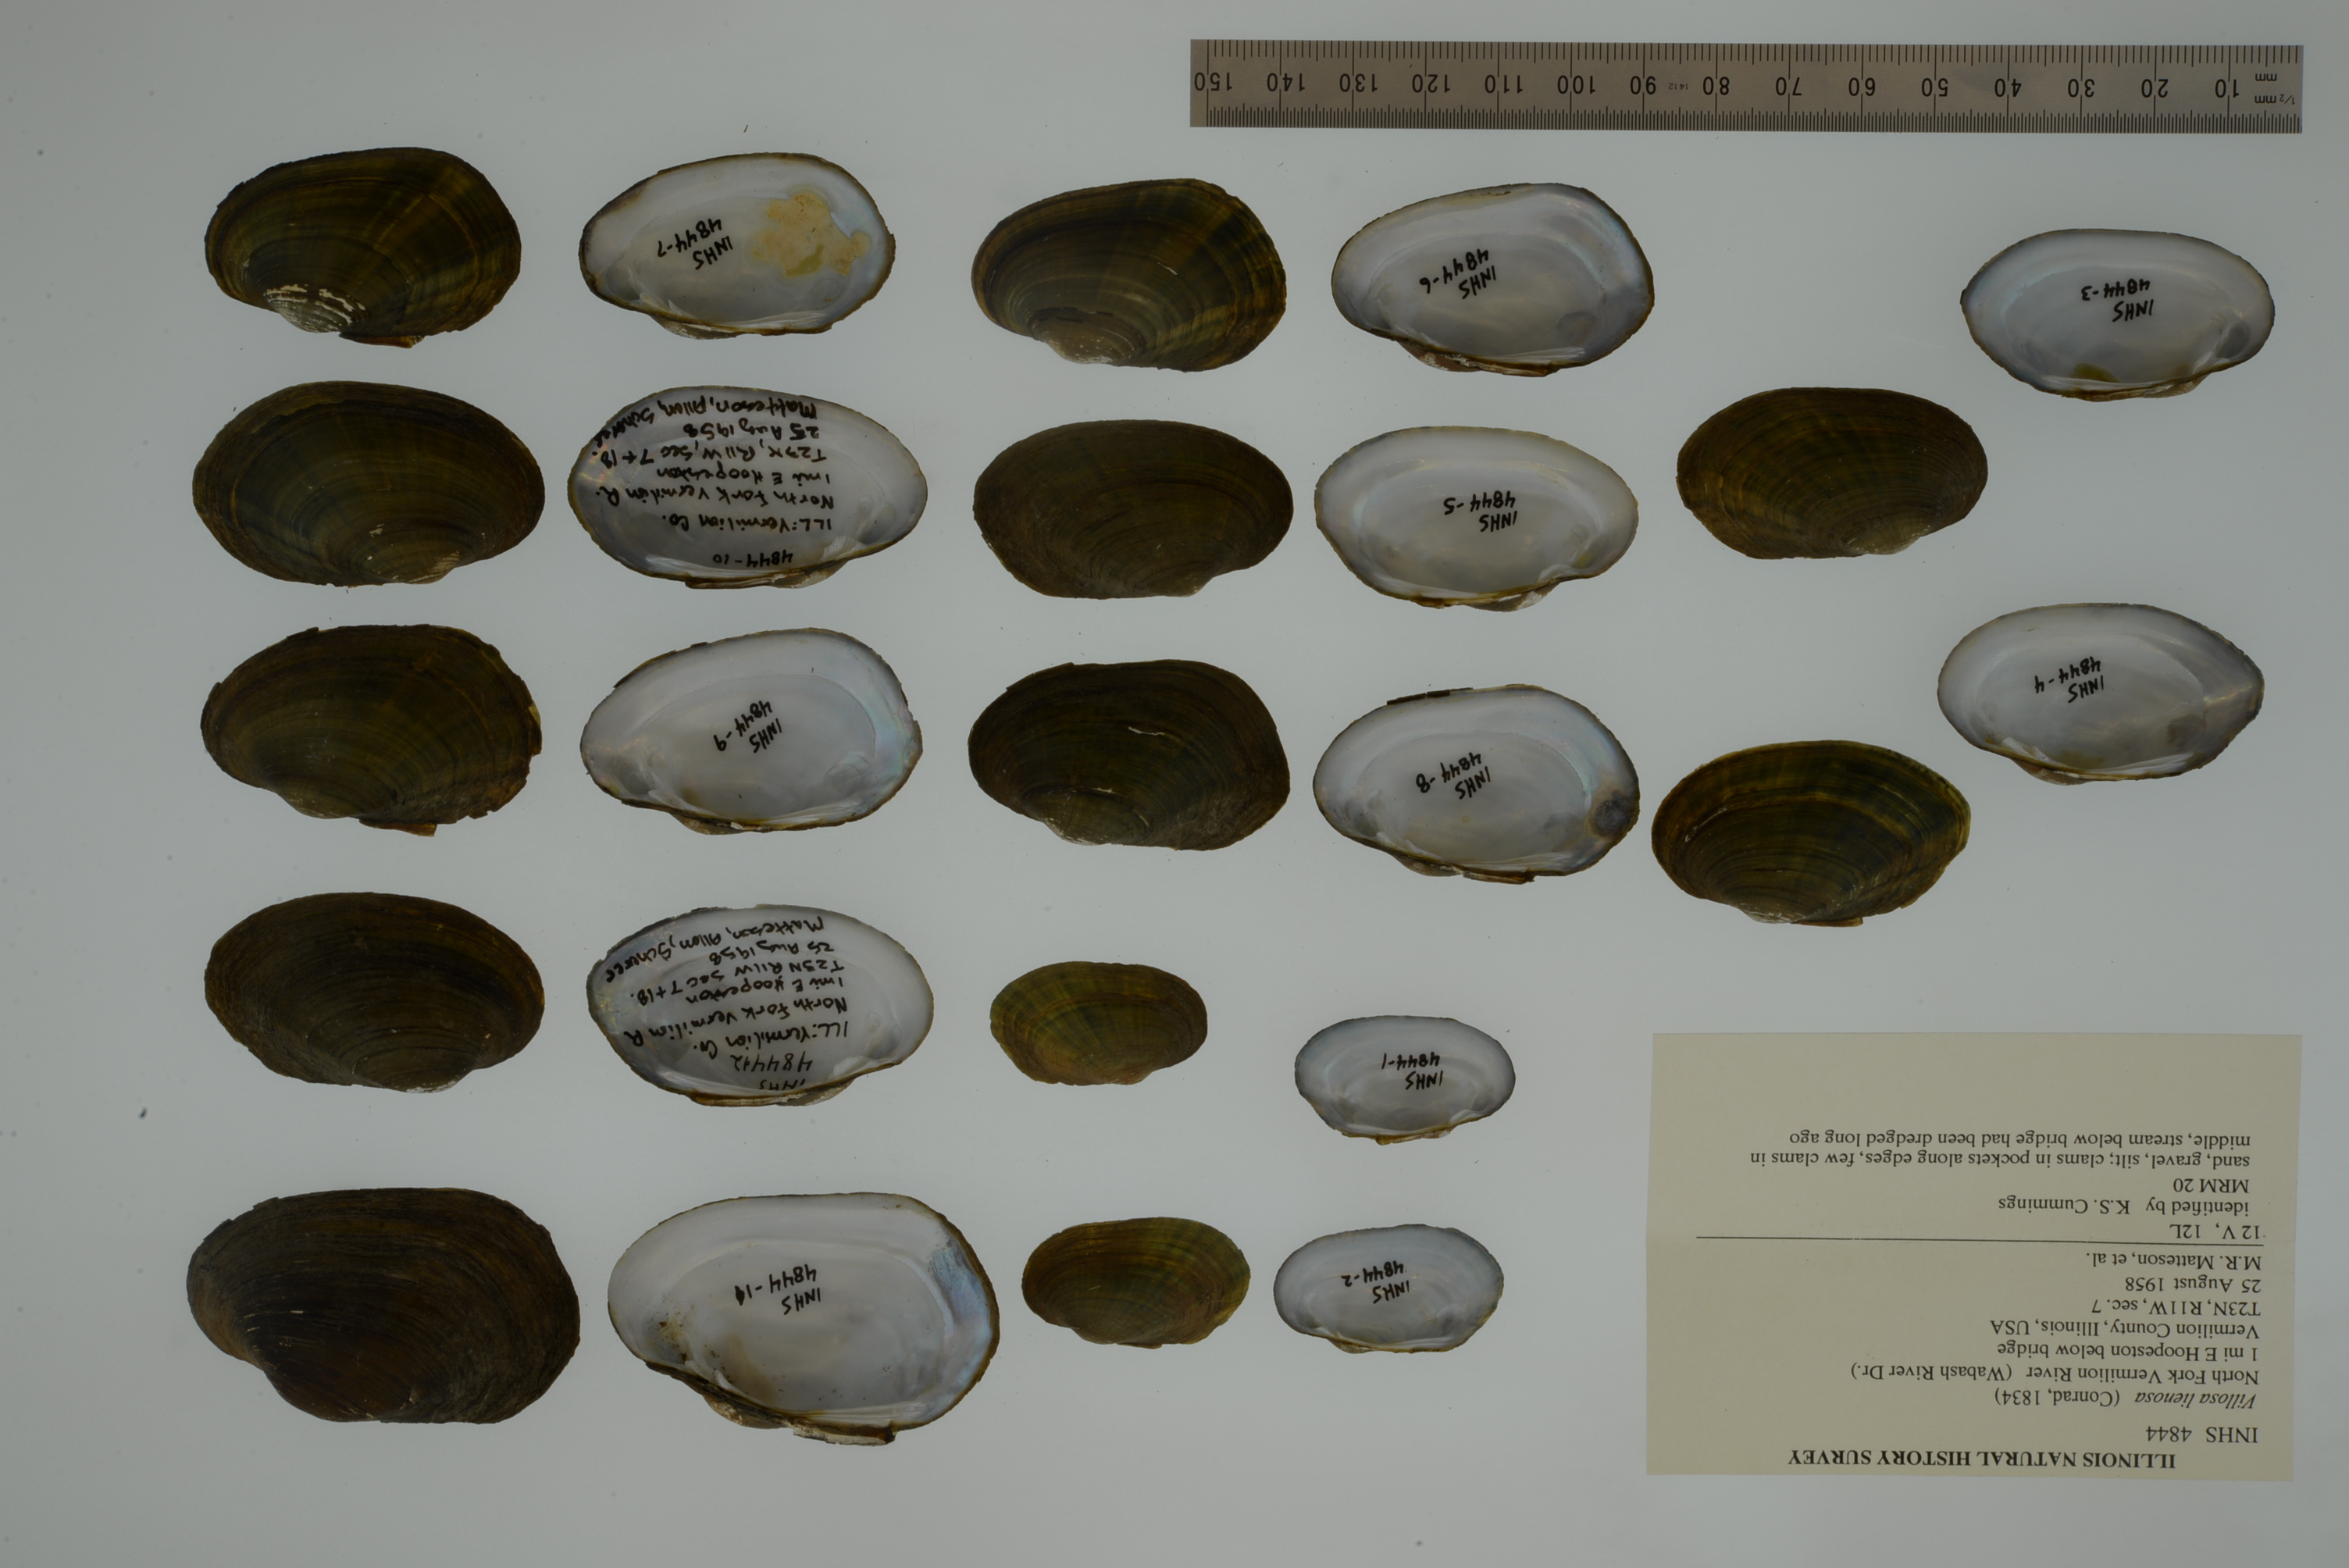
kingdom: Animalia
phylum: Mollusca
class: Bivalvia
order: Unionida
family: Unionidae
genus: Leaunio
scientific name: Leaunio lienosus
